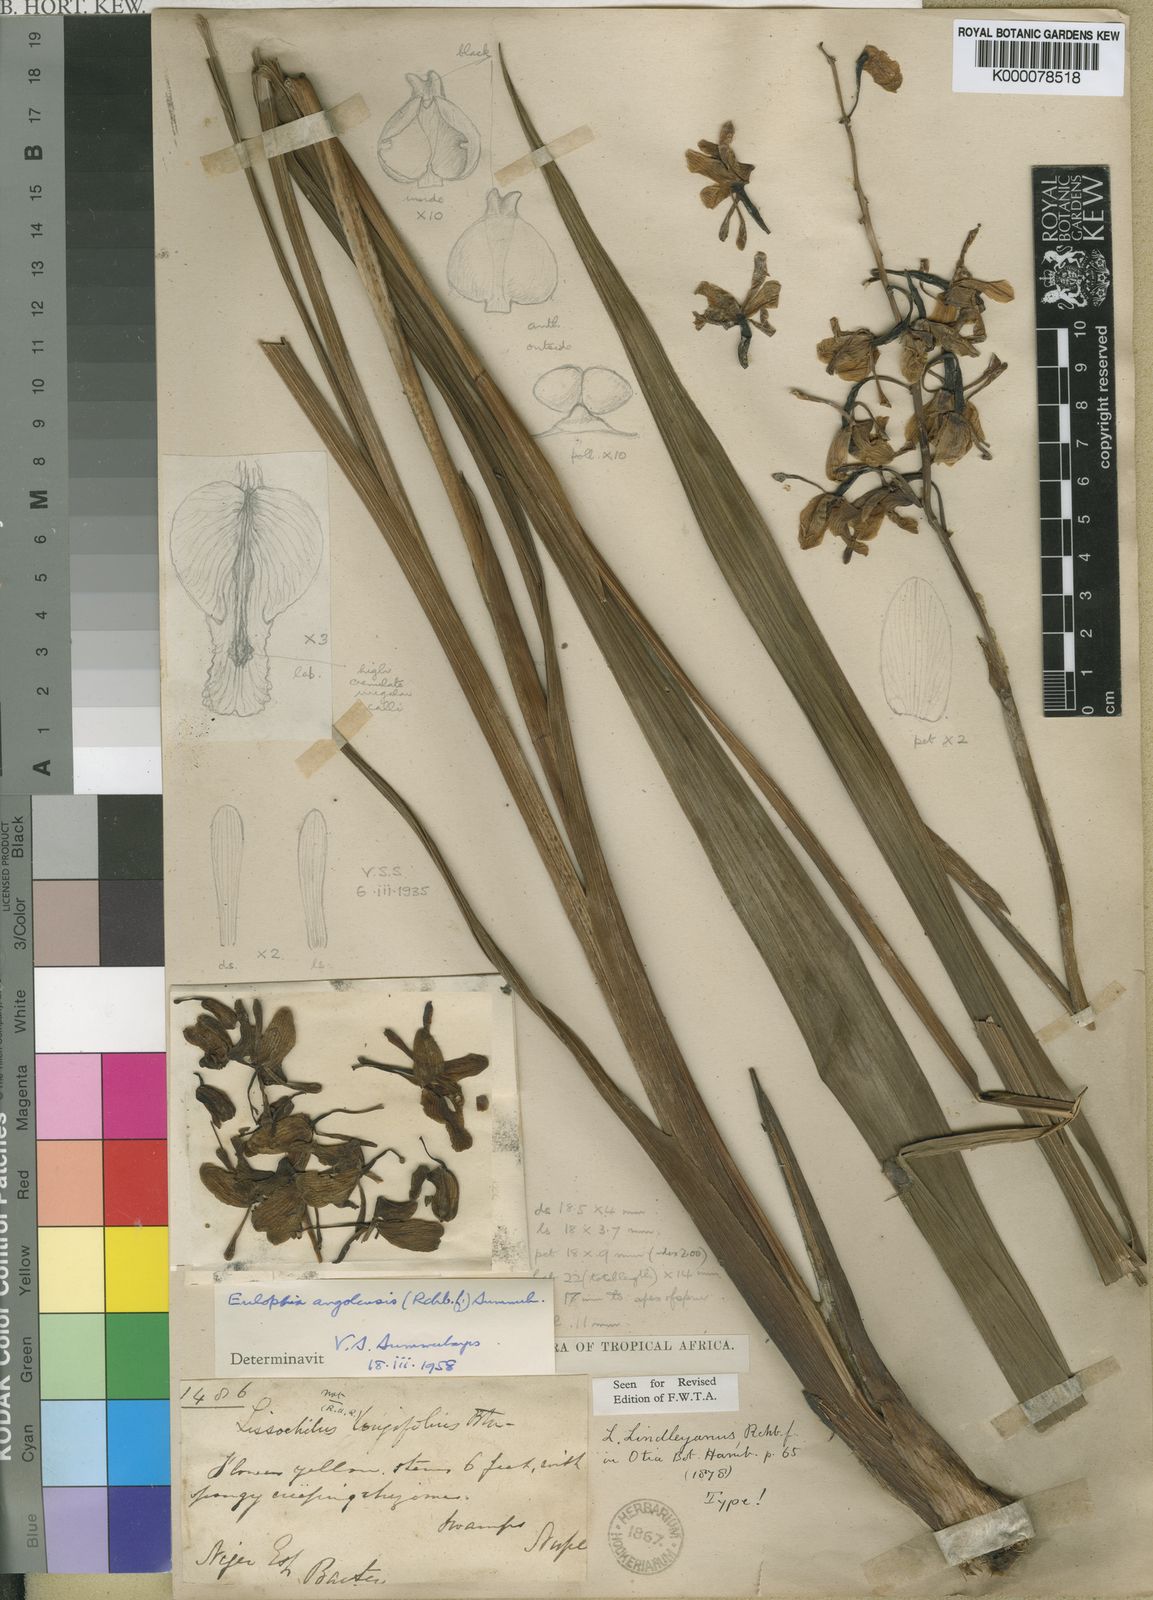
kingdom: Plantae
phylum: Tracheophyta
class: Liliopsida
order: Asparagales
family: Orchidaceae
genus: Eulophia
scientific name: Eulophia angolensis
